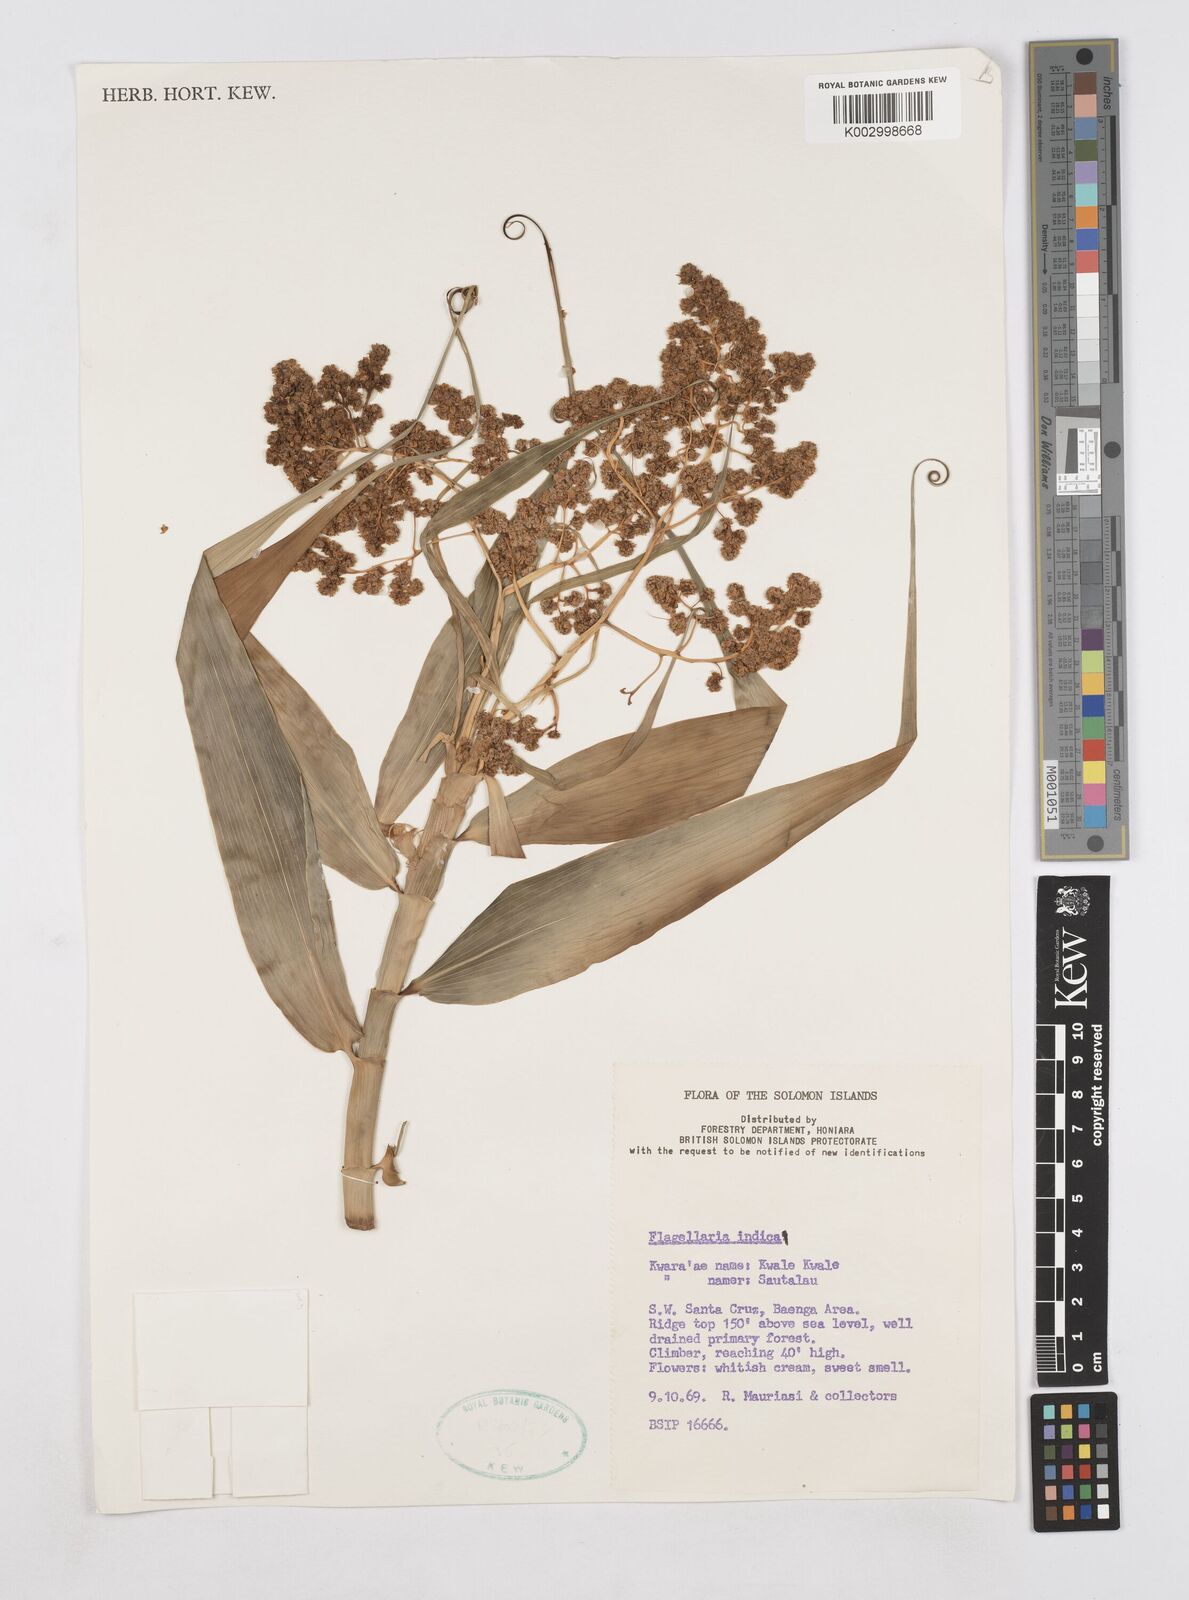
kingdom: Plantae
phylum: Tracheophyta
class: Liliopsida
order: Poales
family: Flagellariaceae
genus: Flagellaria
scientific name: Flagellaria indica
